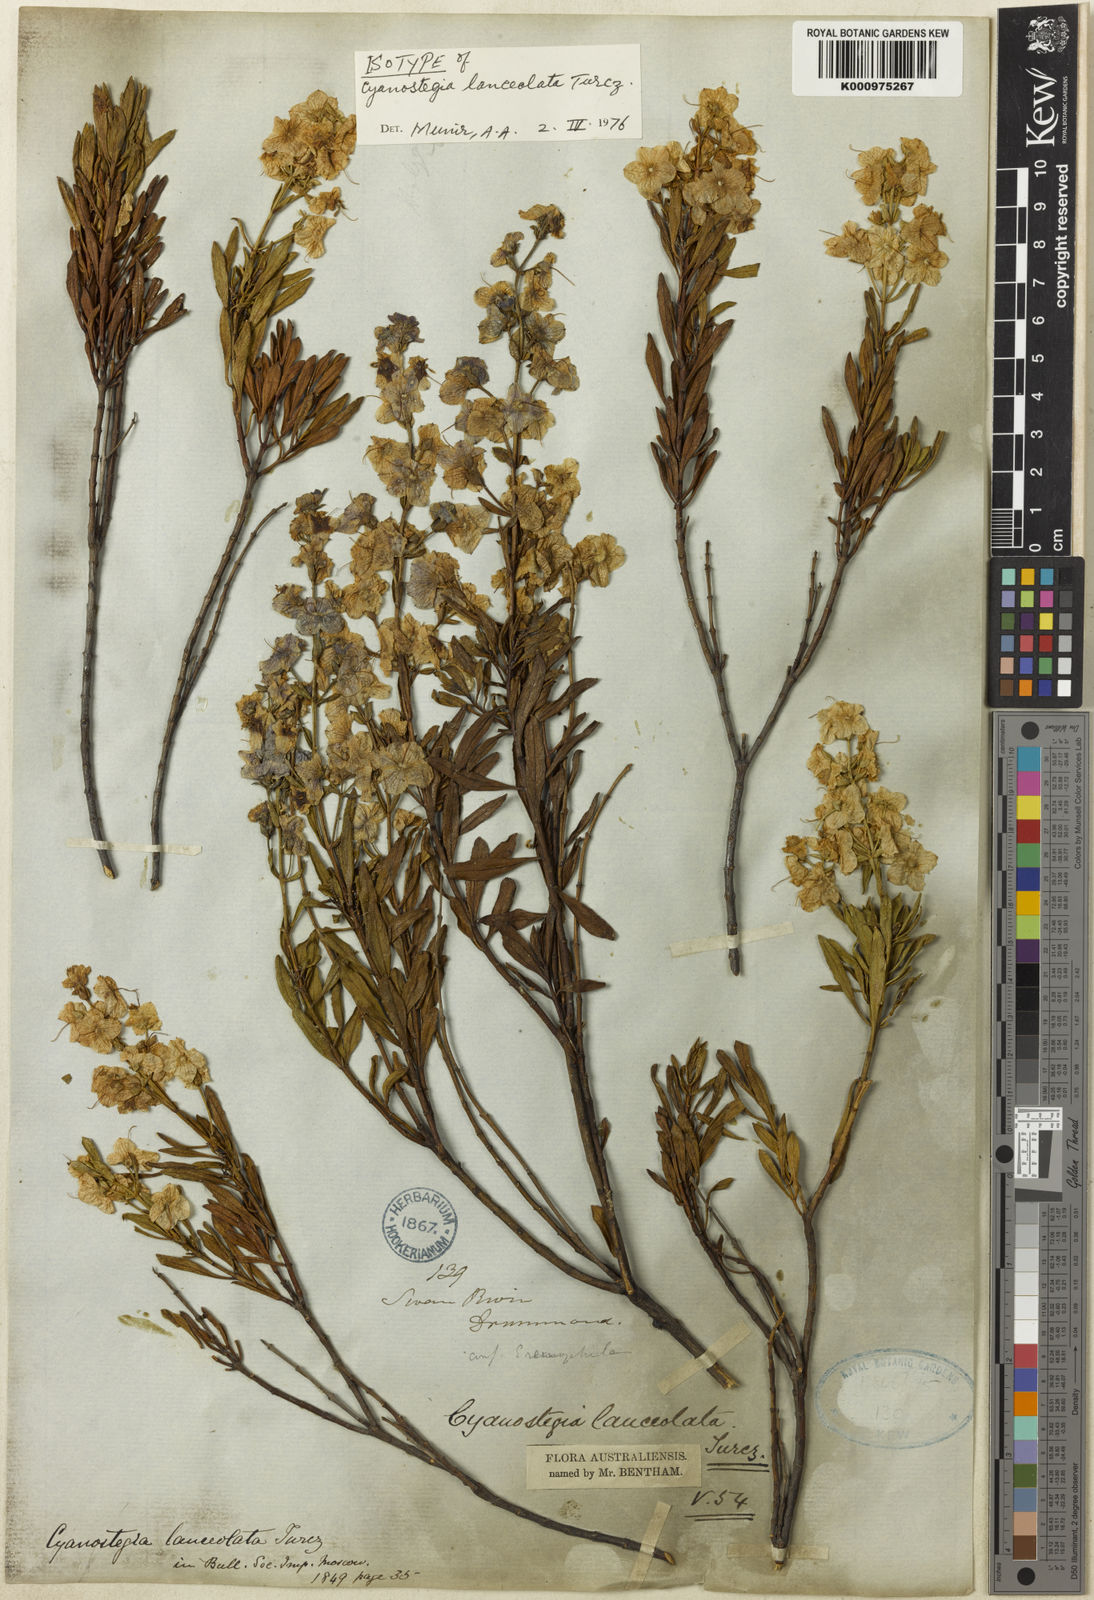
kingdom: Plantae
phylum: Tracheophyta
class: Magnoliopsida
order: Lamiales
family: Lamiaceae
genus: Cyanostegia
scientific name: Cyanostegia lanceolata
